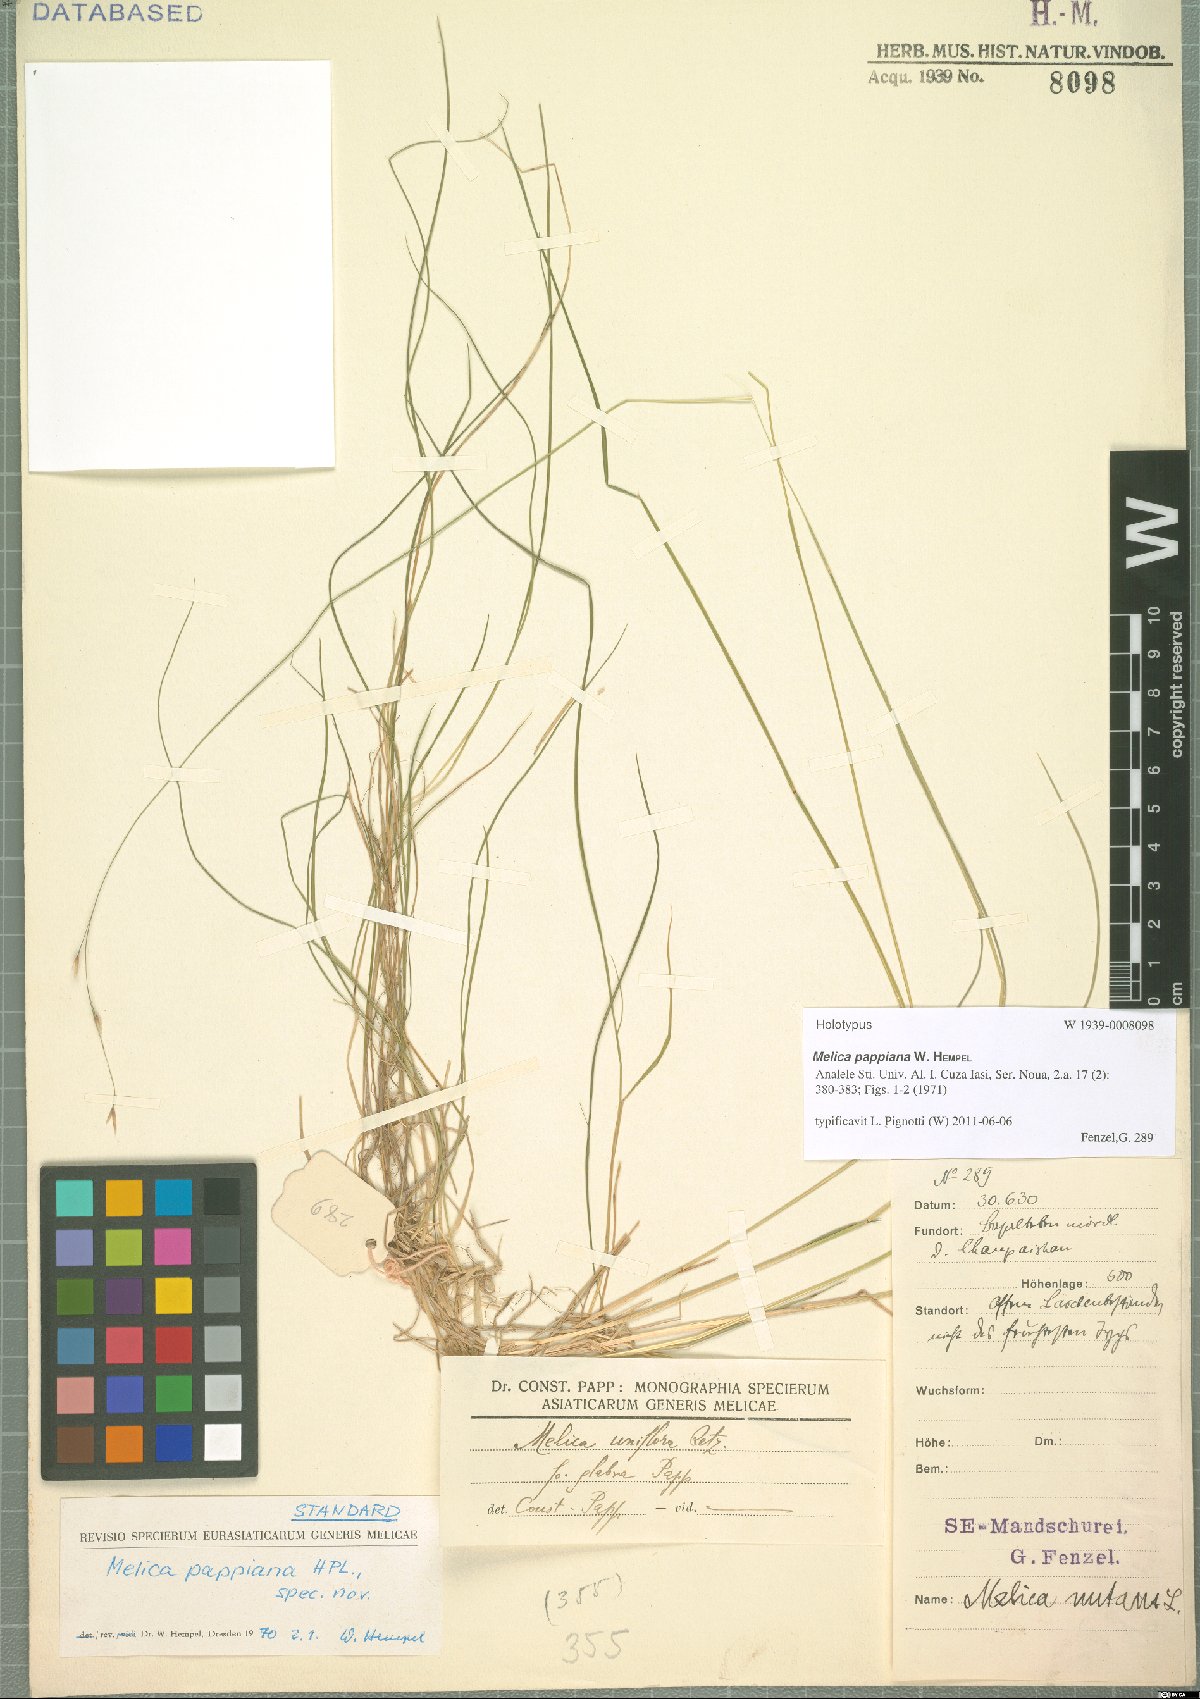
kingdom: Plantae
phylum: Tracheophyta
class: Liliopsida
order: Poales
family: Poaceae
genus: Melica
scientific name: Melica pappiana
